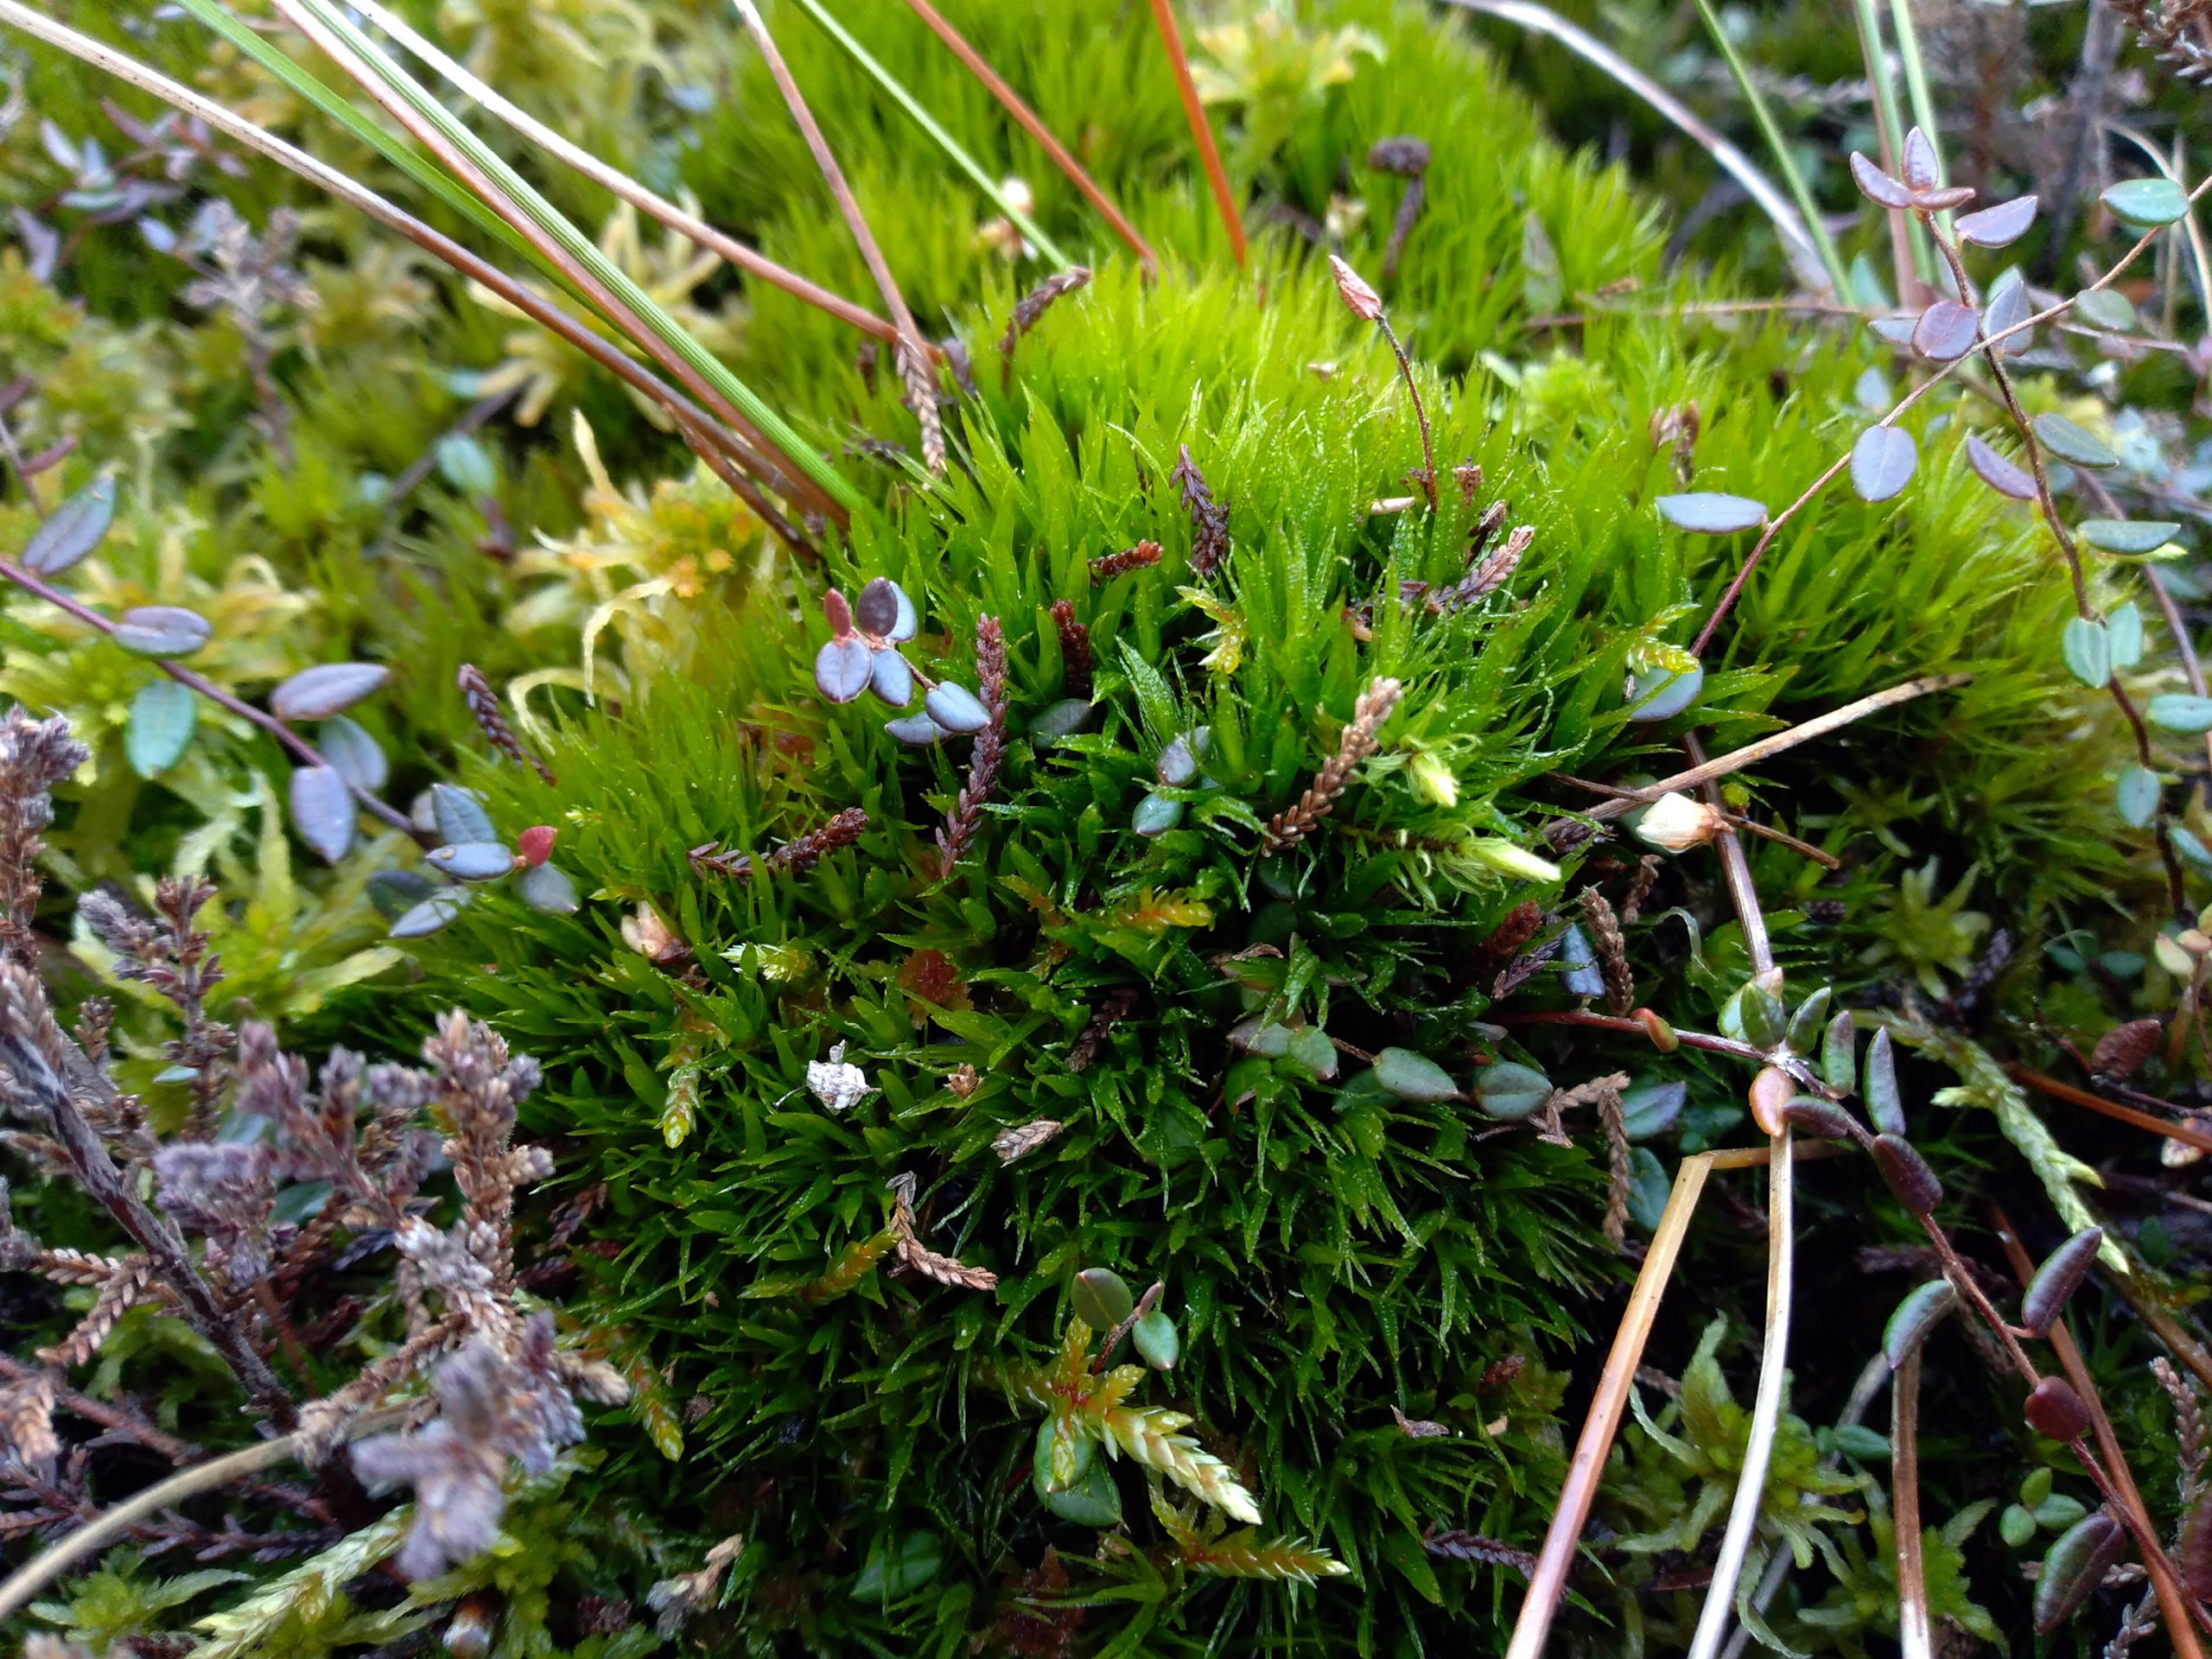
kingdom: Plantae
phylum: Bryophyta
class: Bryopsida
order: Dicranales
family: Dicranaceae
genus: Dicranum
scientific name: Dicranum undulatum
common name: Butbladet kløvtand
